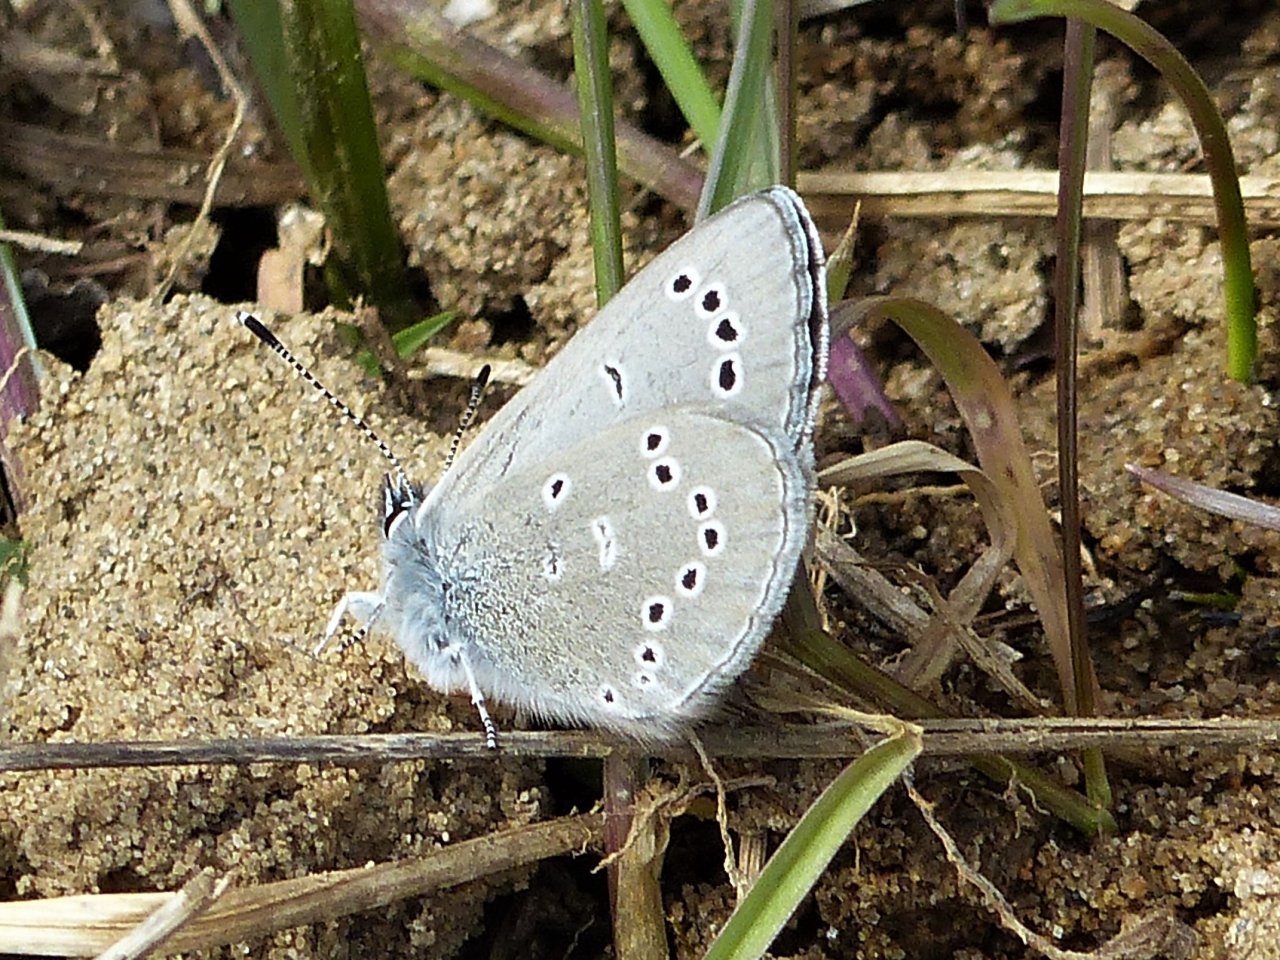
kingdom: Animalia
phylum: Arthropoda
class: Insecta
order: Lepidoptera
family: Lycaenidae
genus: Glaucopsyche
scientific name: Glaucopsyche lygdamus
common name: Silvery Blue
